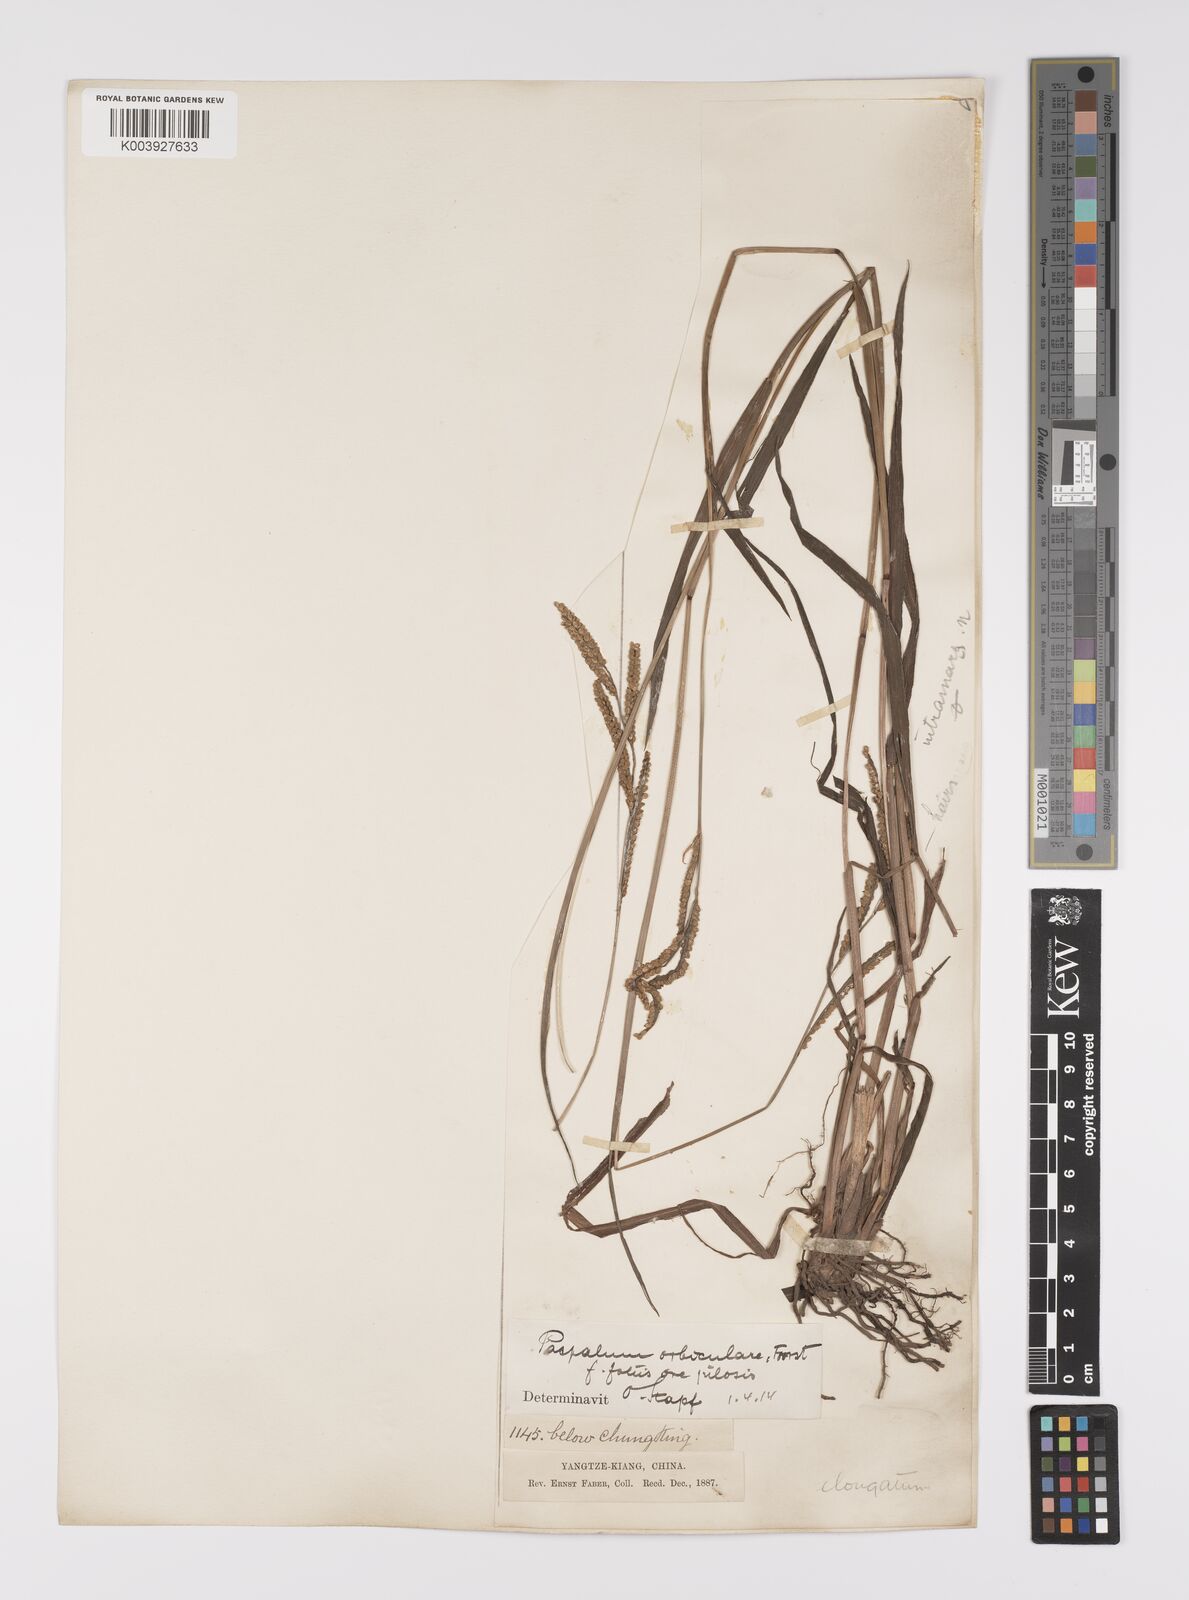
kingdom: Plantae
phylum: Tracheophyta
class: Liliopsida
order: Poales
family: Poaceae
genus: Paspalum
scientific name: Paspalum orbiculare
